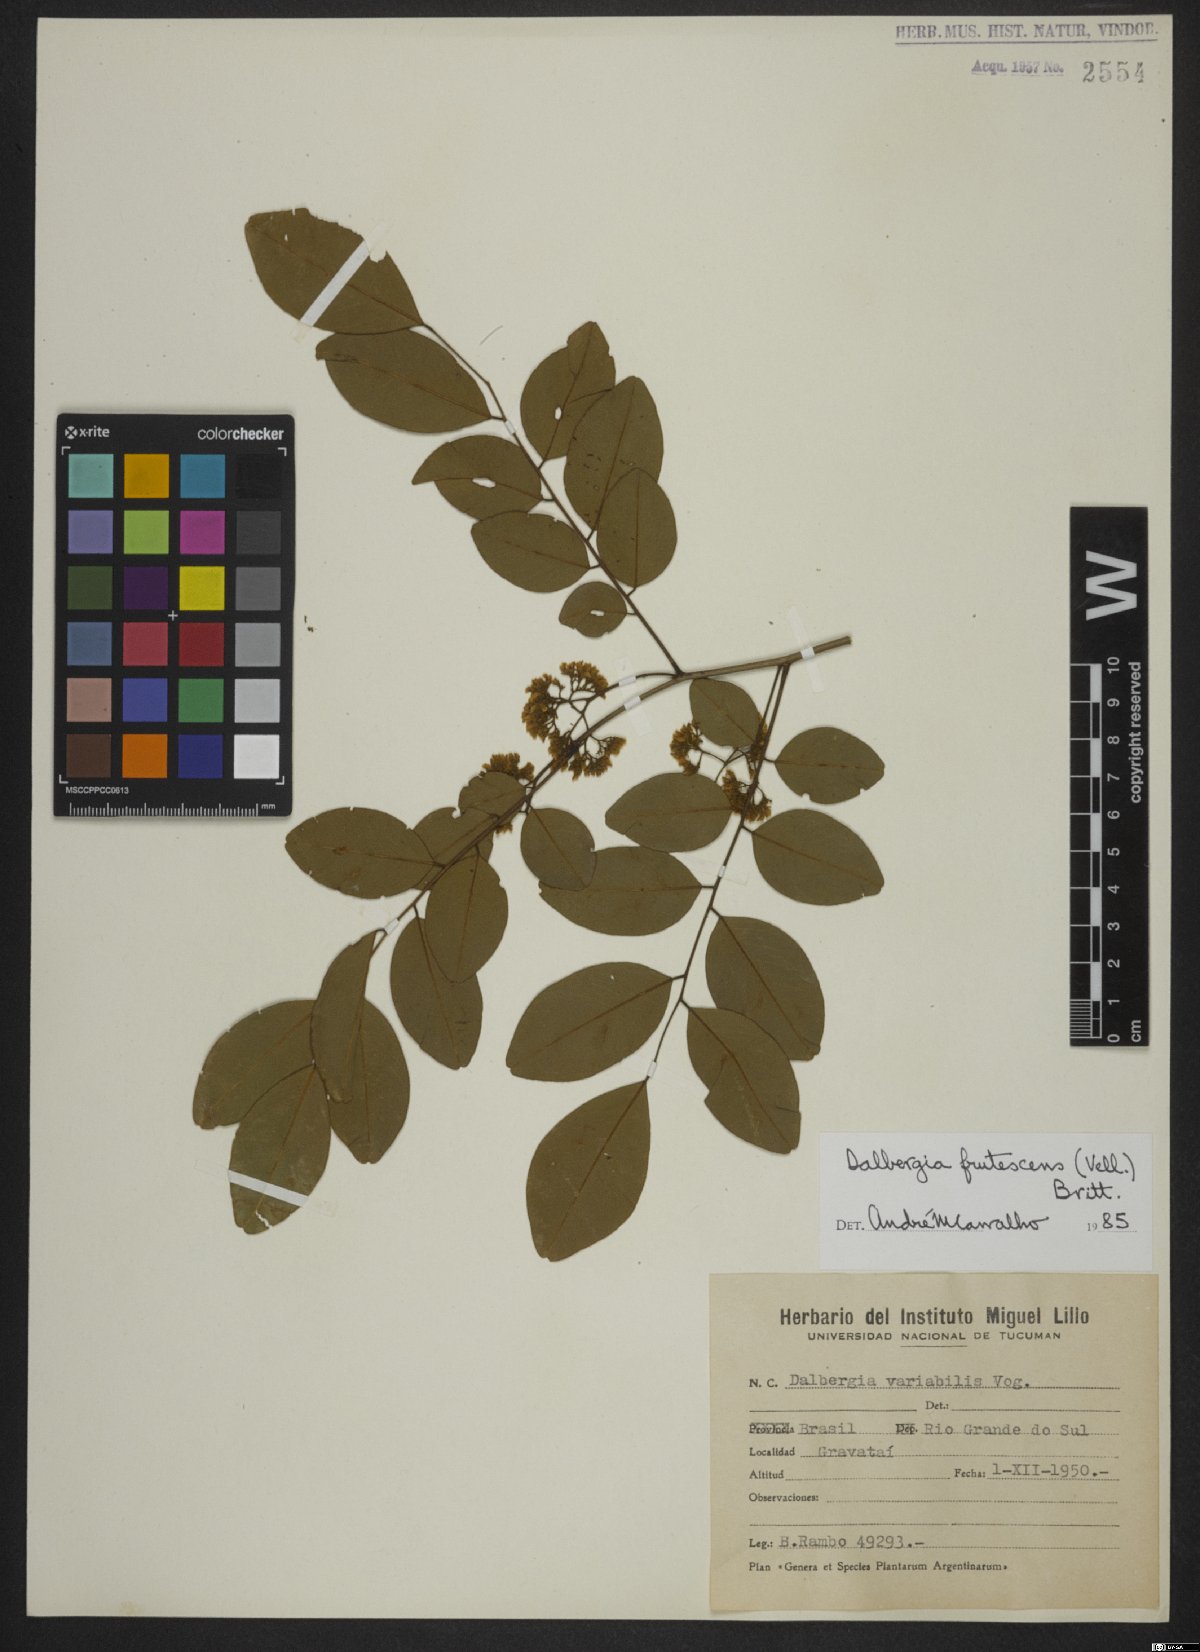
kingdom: Plantae
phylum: Tracheophyta
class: Magnoliopsida
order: Fabales
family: Fabaceae
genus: Dalbergia
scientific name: Dalbergia frutescens
